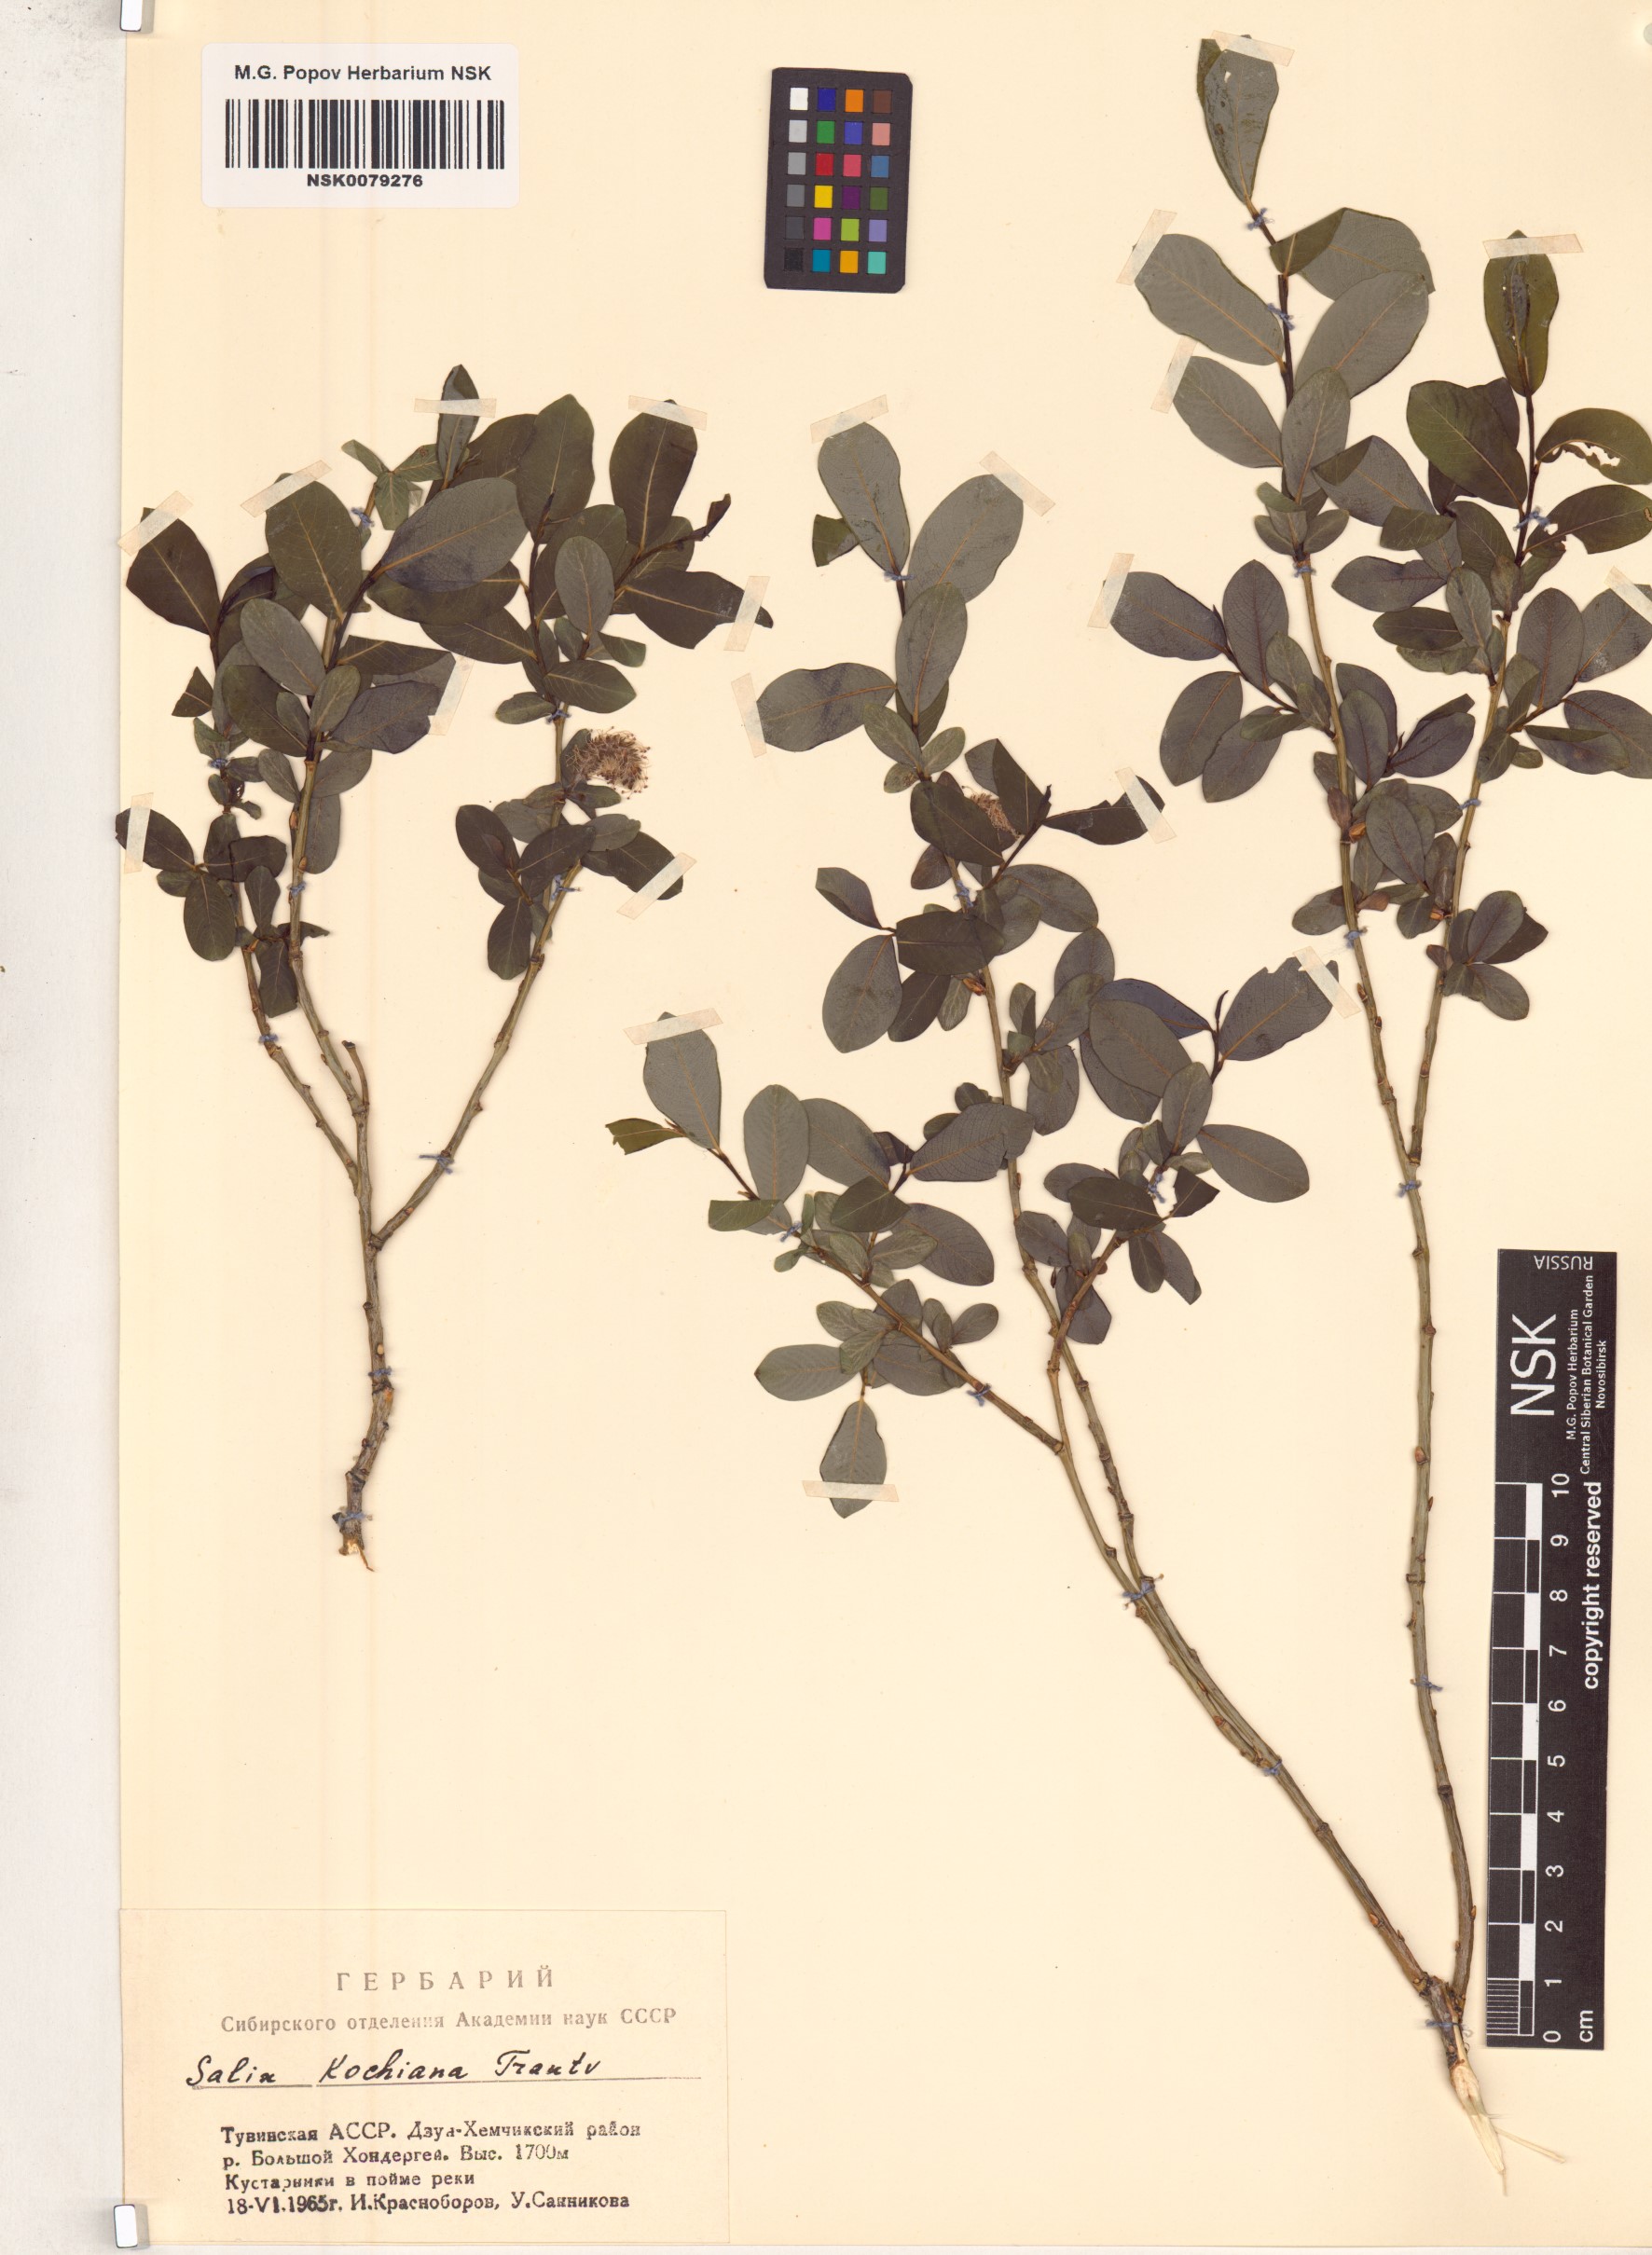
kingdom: Plantae
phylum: Tracheophyta
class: Magnoliopsida
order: Malpighiales
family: Salicaceae
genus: Salix
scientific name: Salix kochiana
